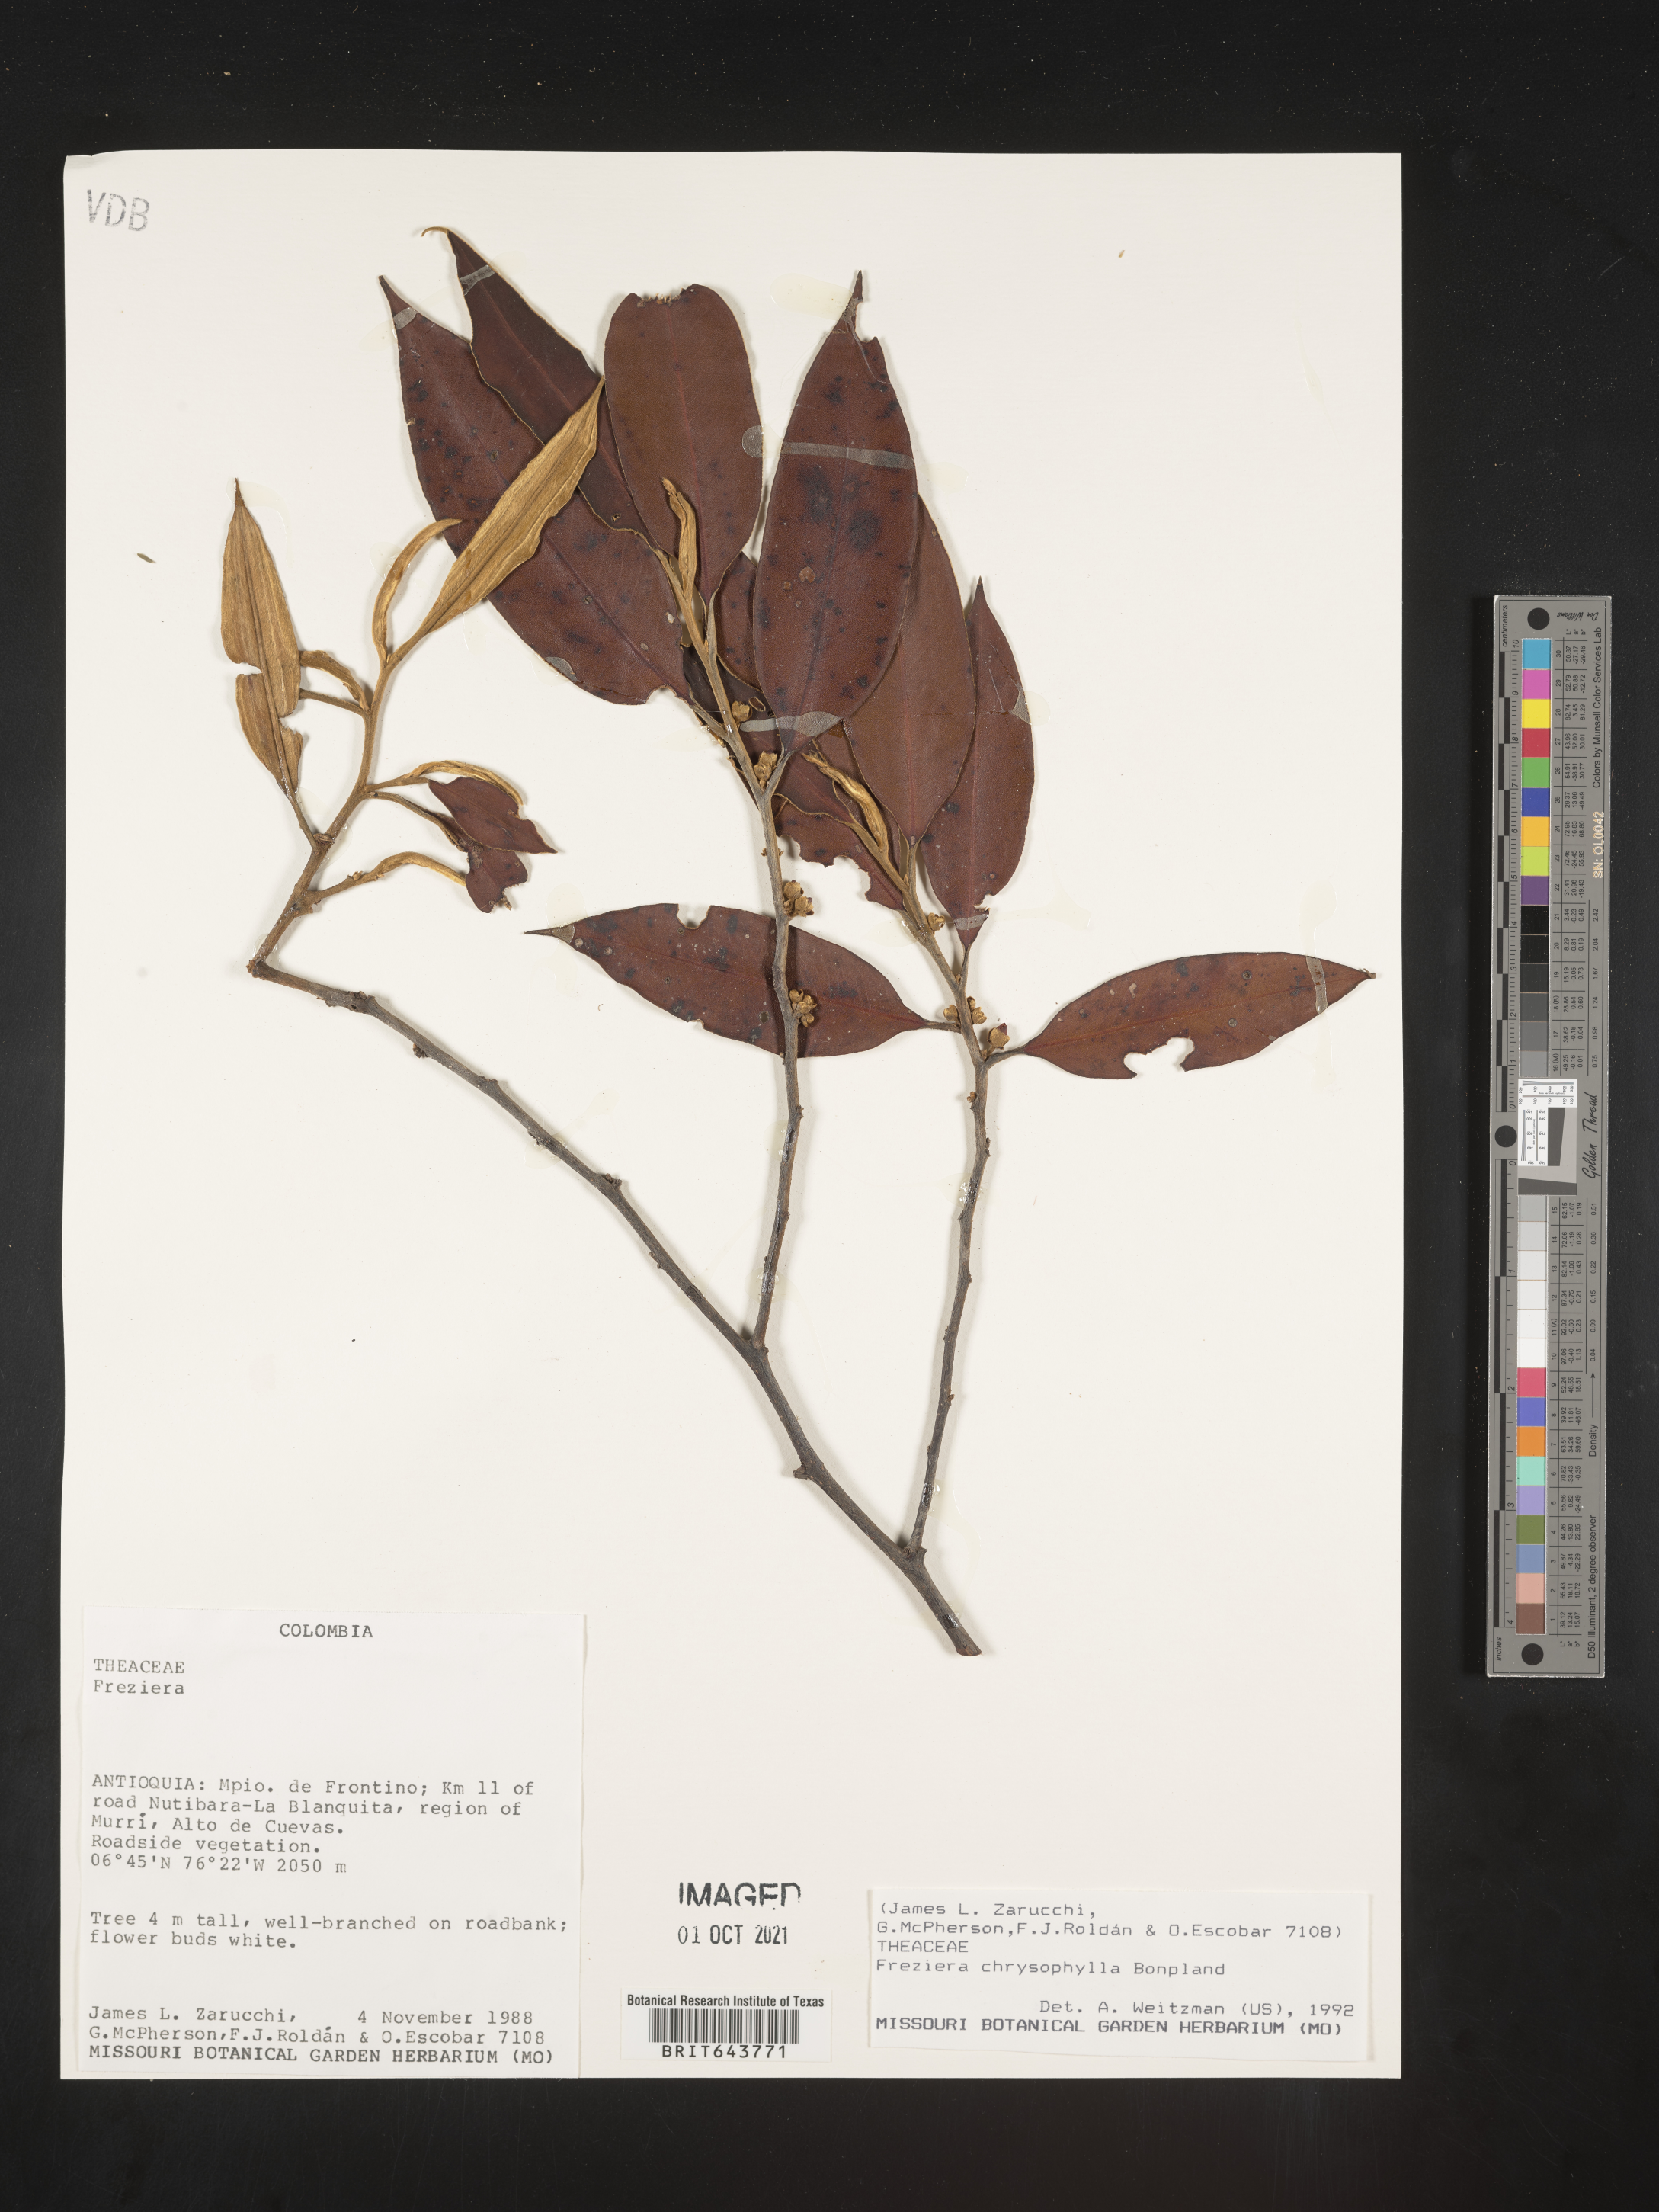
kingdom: Plantae
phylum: Tracheophyta
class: Magnoliopsida
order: Ericales
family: Pentaphylacaceae
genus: Freziera
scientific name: Freziera
